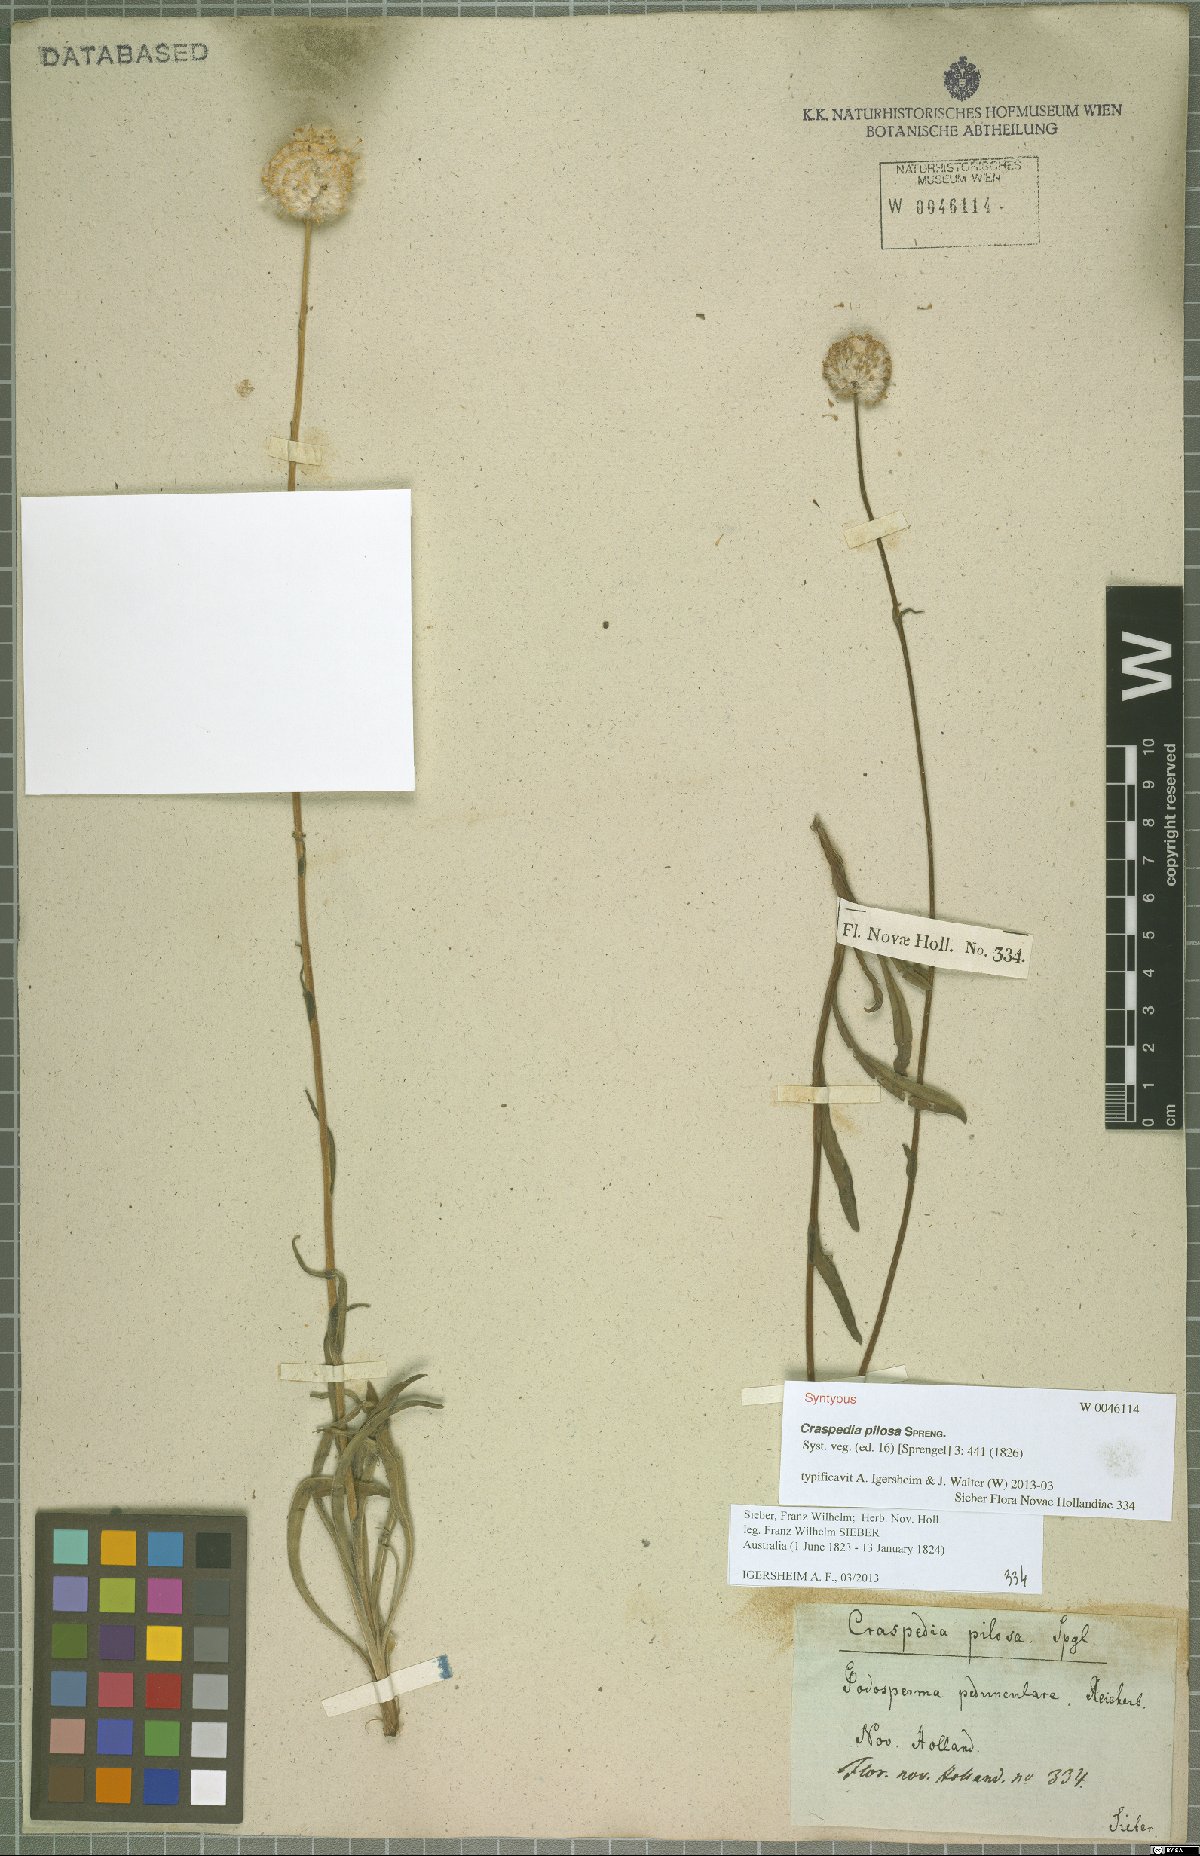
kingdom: Plantae
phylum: Tracheophyta
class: Magnoliopsida
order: Asterales
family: Asteraceae
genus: Craspedia
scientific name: Craspedia pilosa
